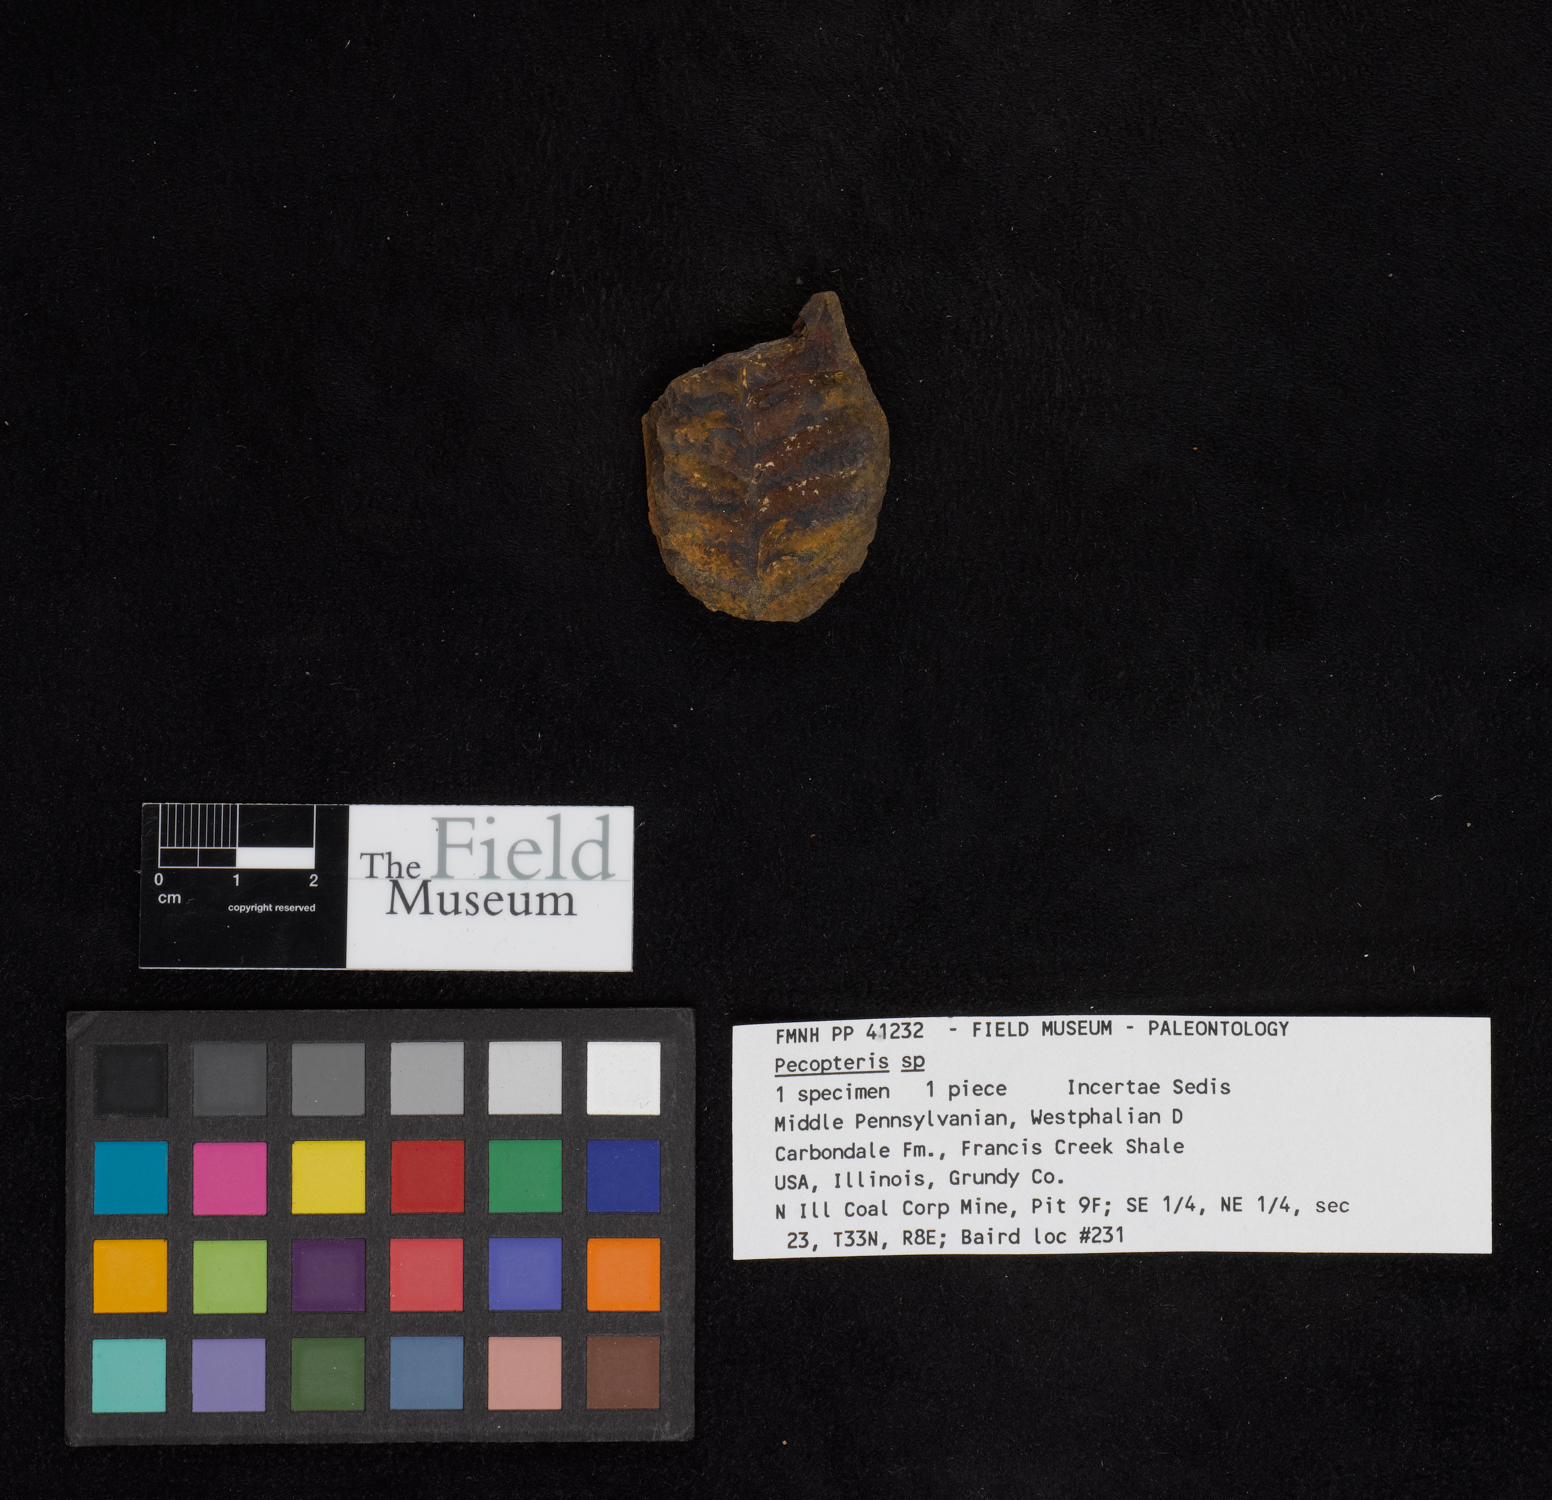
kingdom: Plantae
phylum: Tracheophyta
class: Polypodiopsida
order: Marattiales
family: Asterothecaceae
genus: Pecopteris
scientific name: Pecopteris
